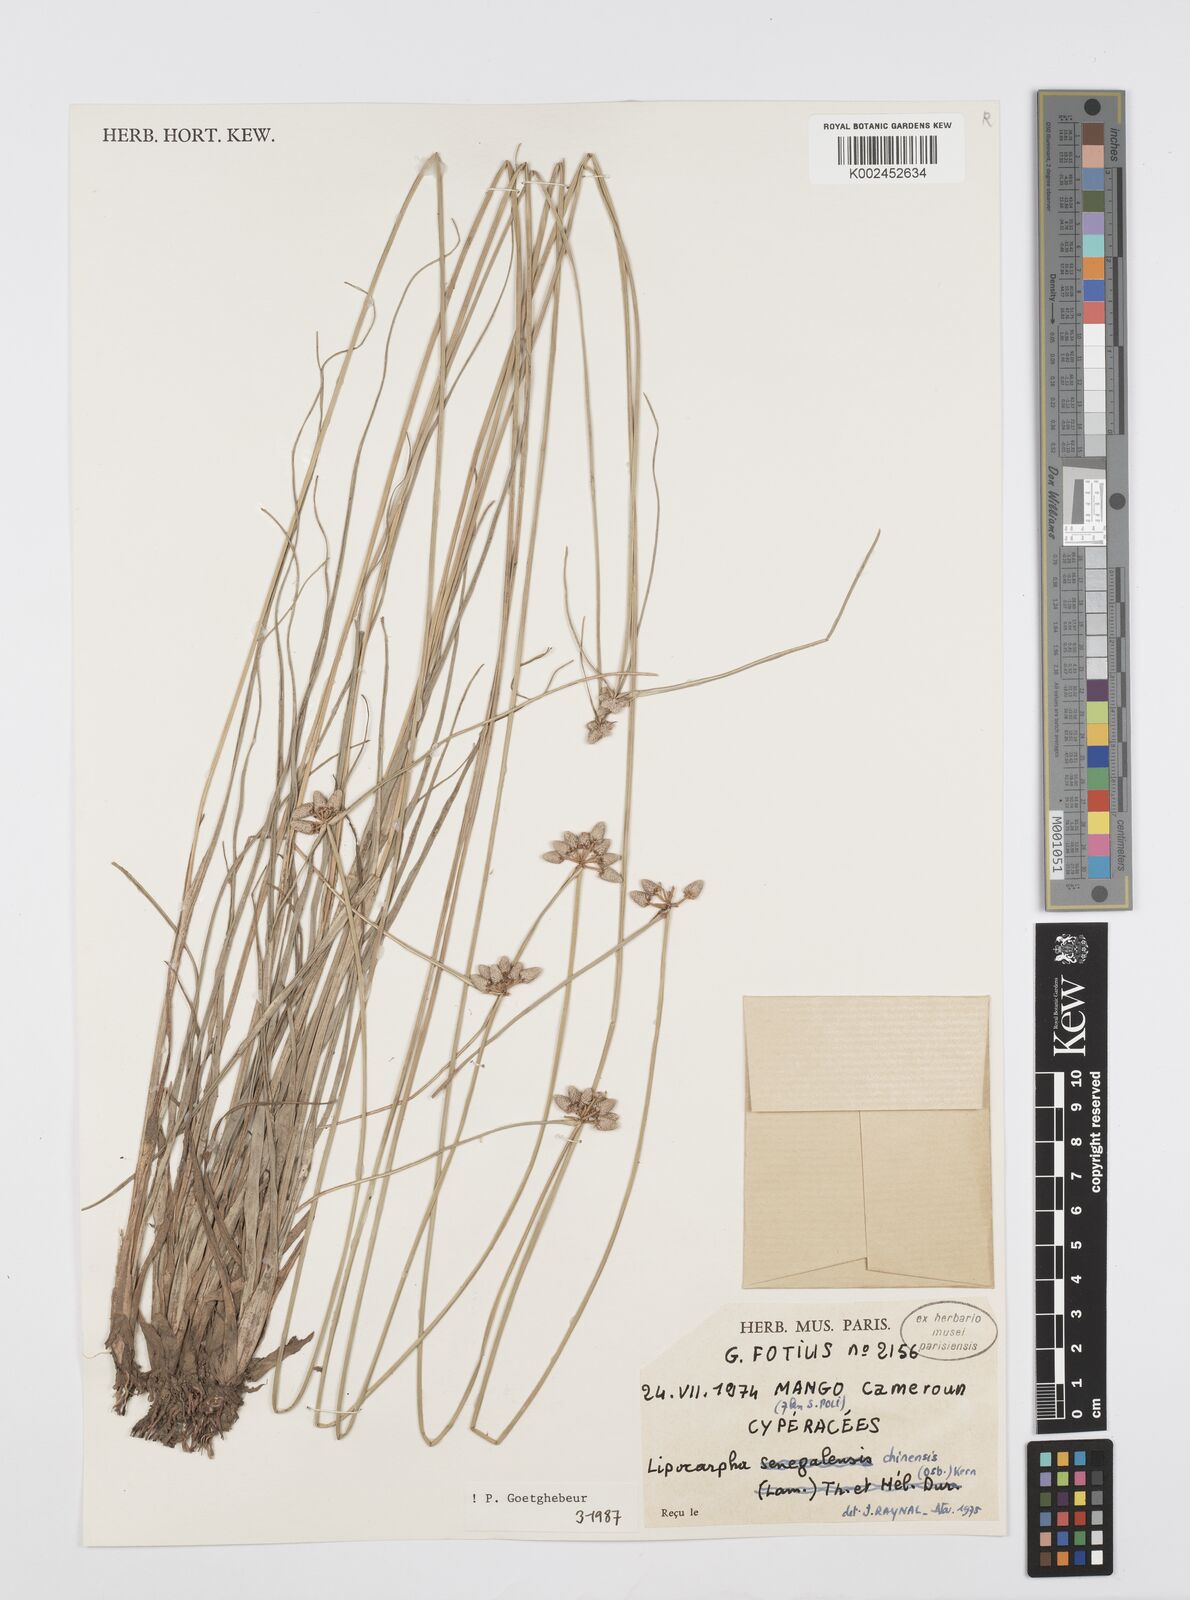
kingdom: Plantae
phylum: Tracheophyta
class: Liliopsida
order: Poales
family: Cyperaceae
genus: Cyperus
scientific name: Cyperus albescens
